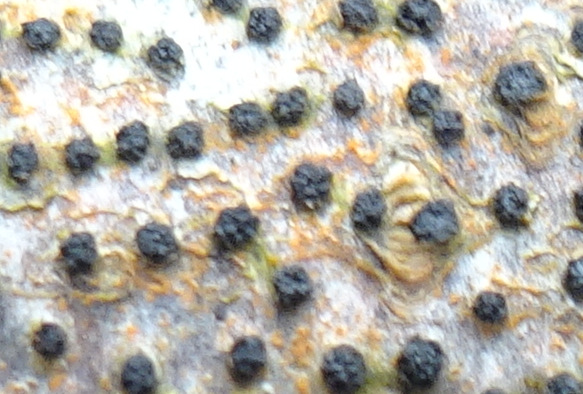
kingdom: Fungi
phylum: Ascomycota
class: Sordariomycetes
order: Xylariales
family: Diatrypaceae
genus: Eutypella
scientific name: Eutypella quaternata
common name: bøge-korsprik
